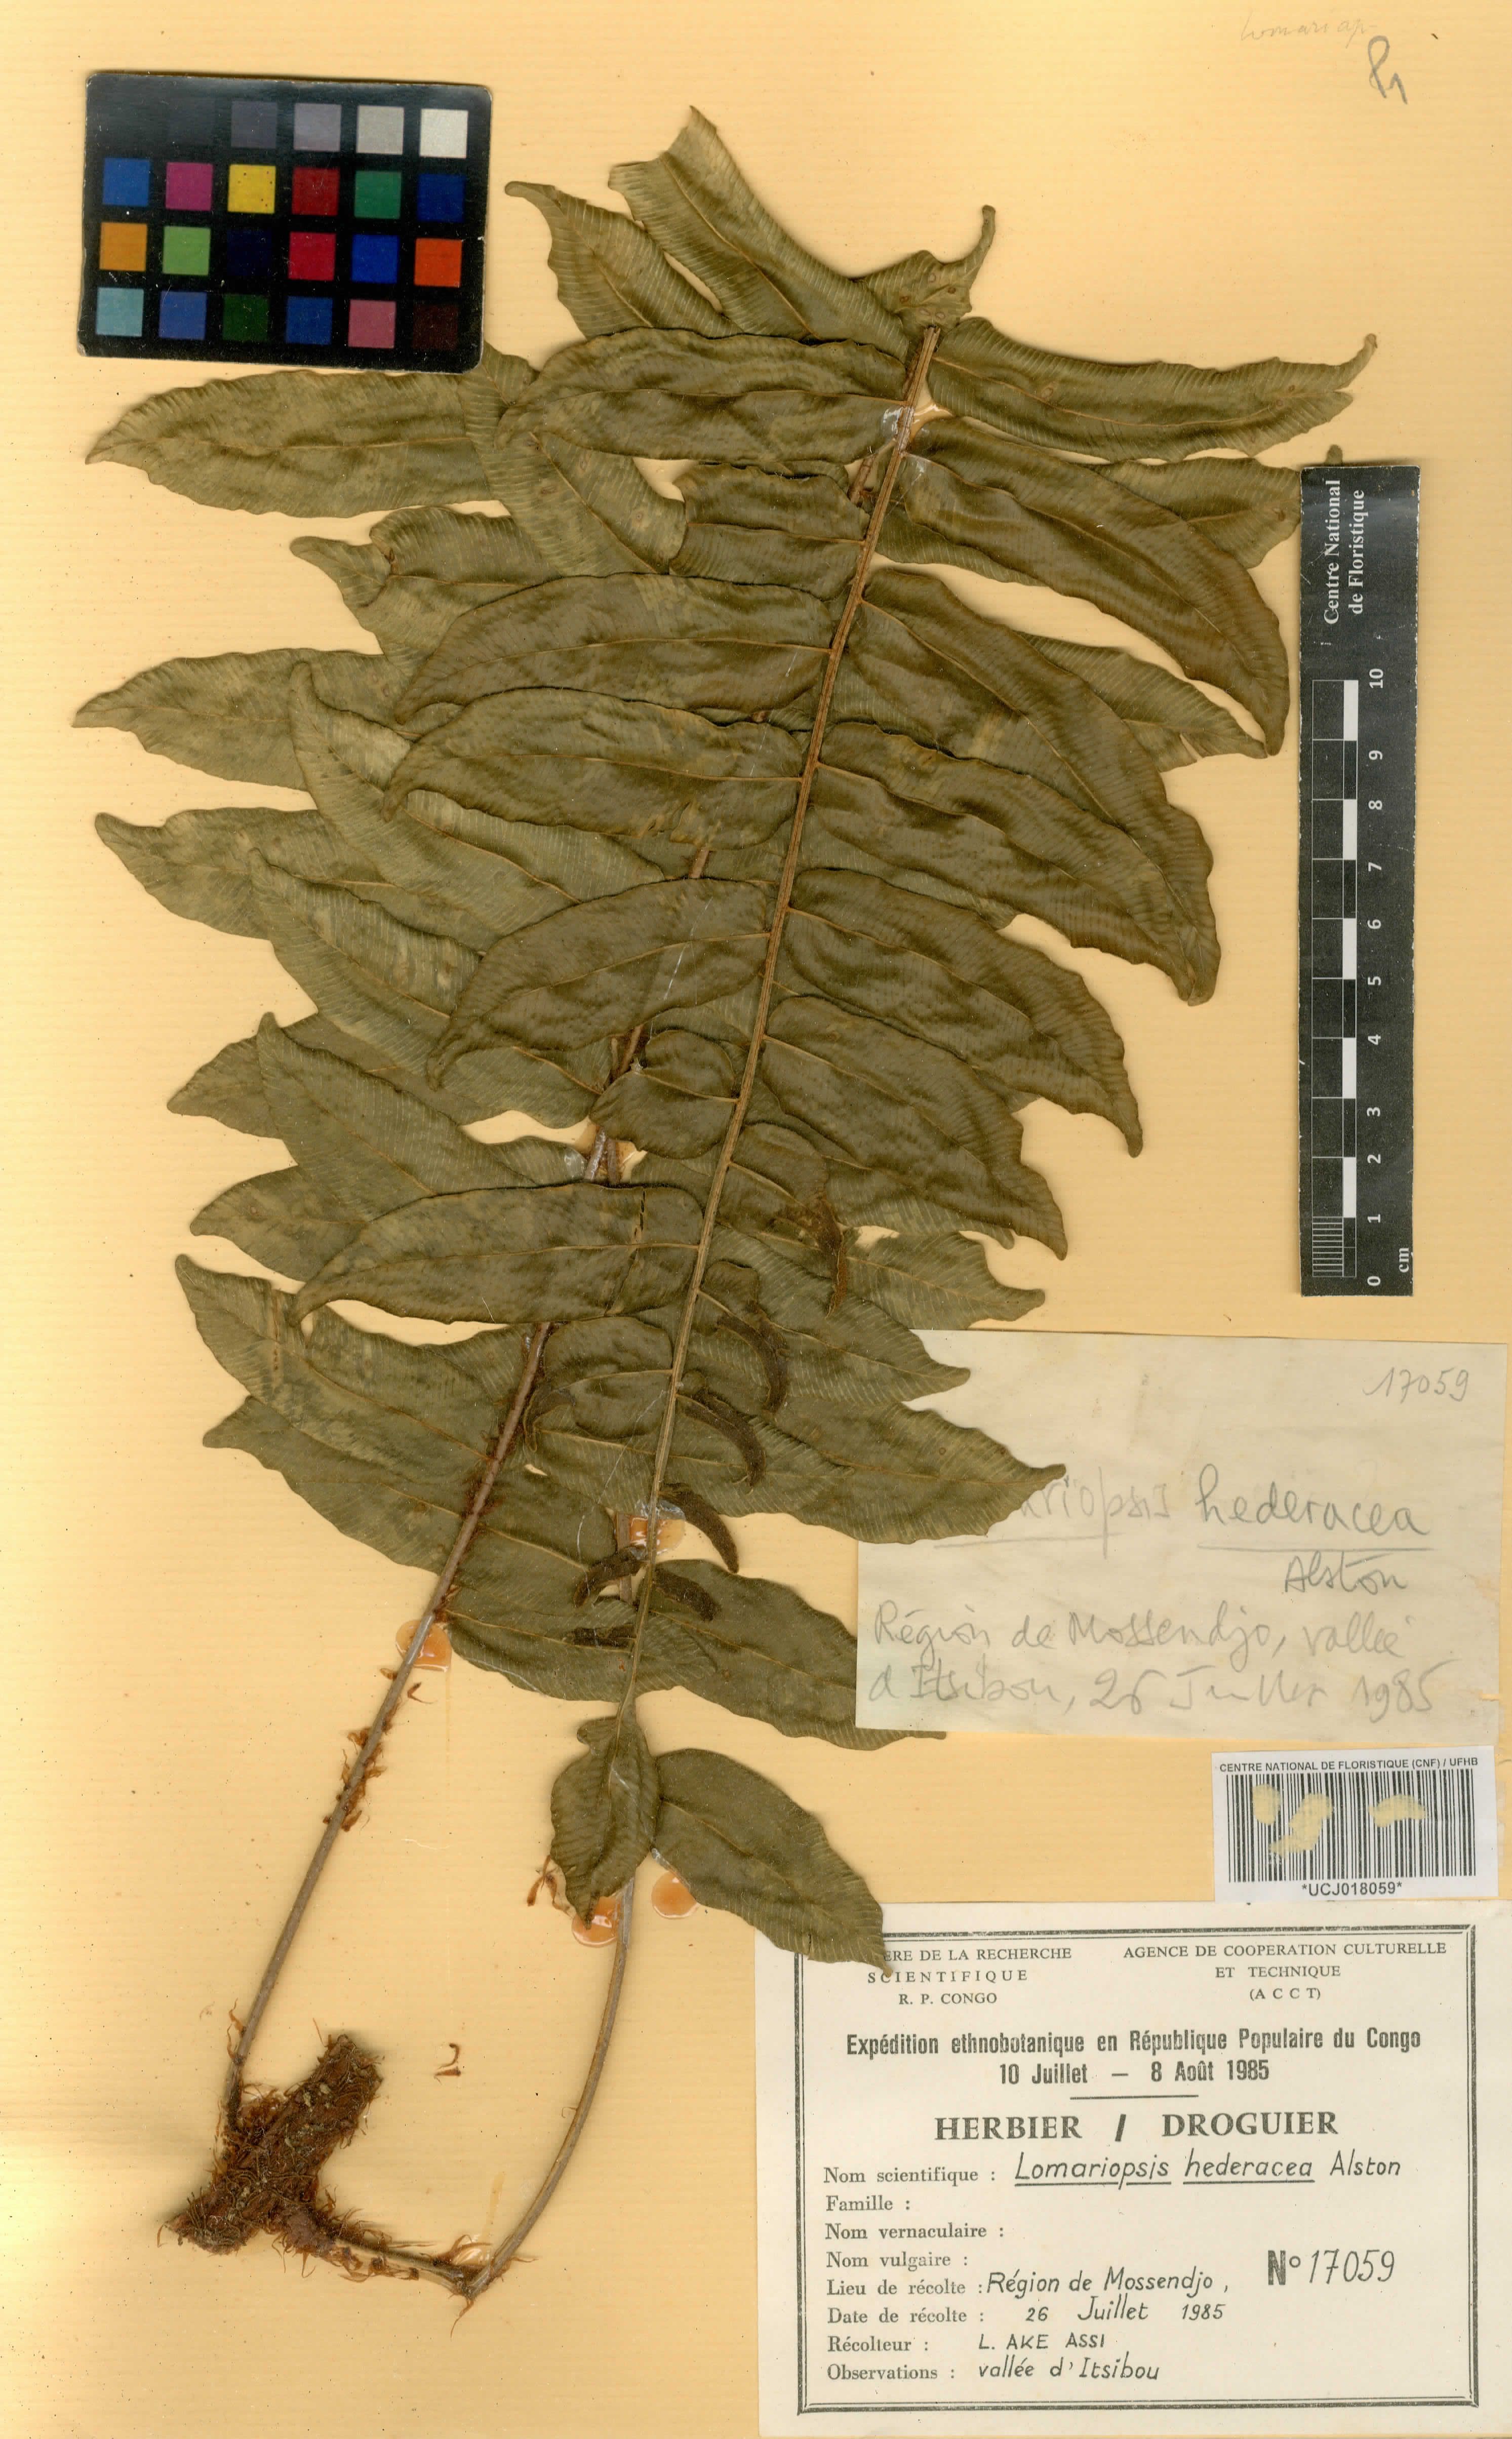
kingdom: Plantae
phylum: Tracheophyta
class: Polypodiopsida
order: Polypodiales
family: Lomariopsidaceae
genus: Lomariopsis
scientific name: Lomariopsis hederacea
